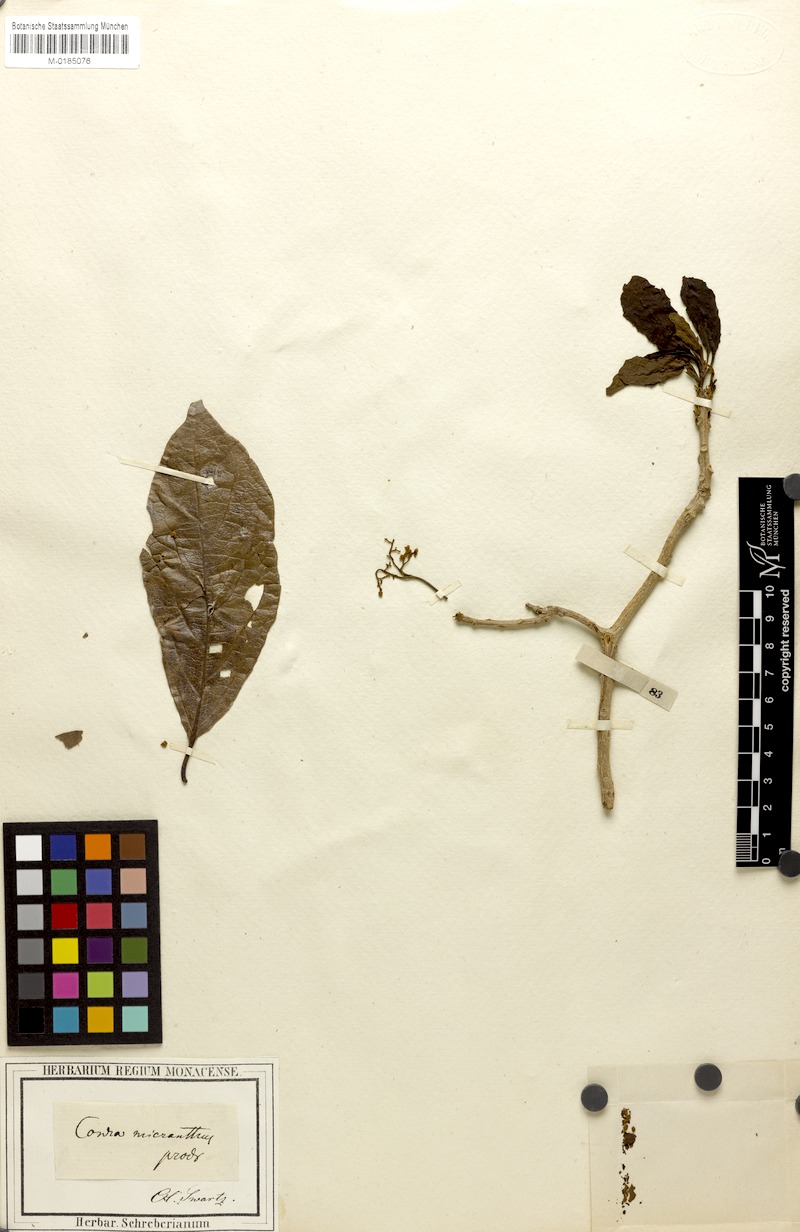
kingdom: Plantae
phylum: Tracheophyta
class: Magnoliopsida
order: Boraginales
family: Cordiaceae
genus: Cordia
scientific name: Cordia collococca
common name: Clammy cherry
